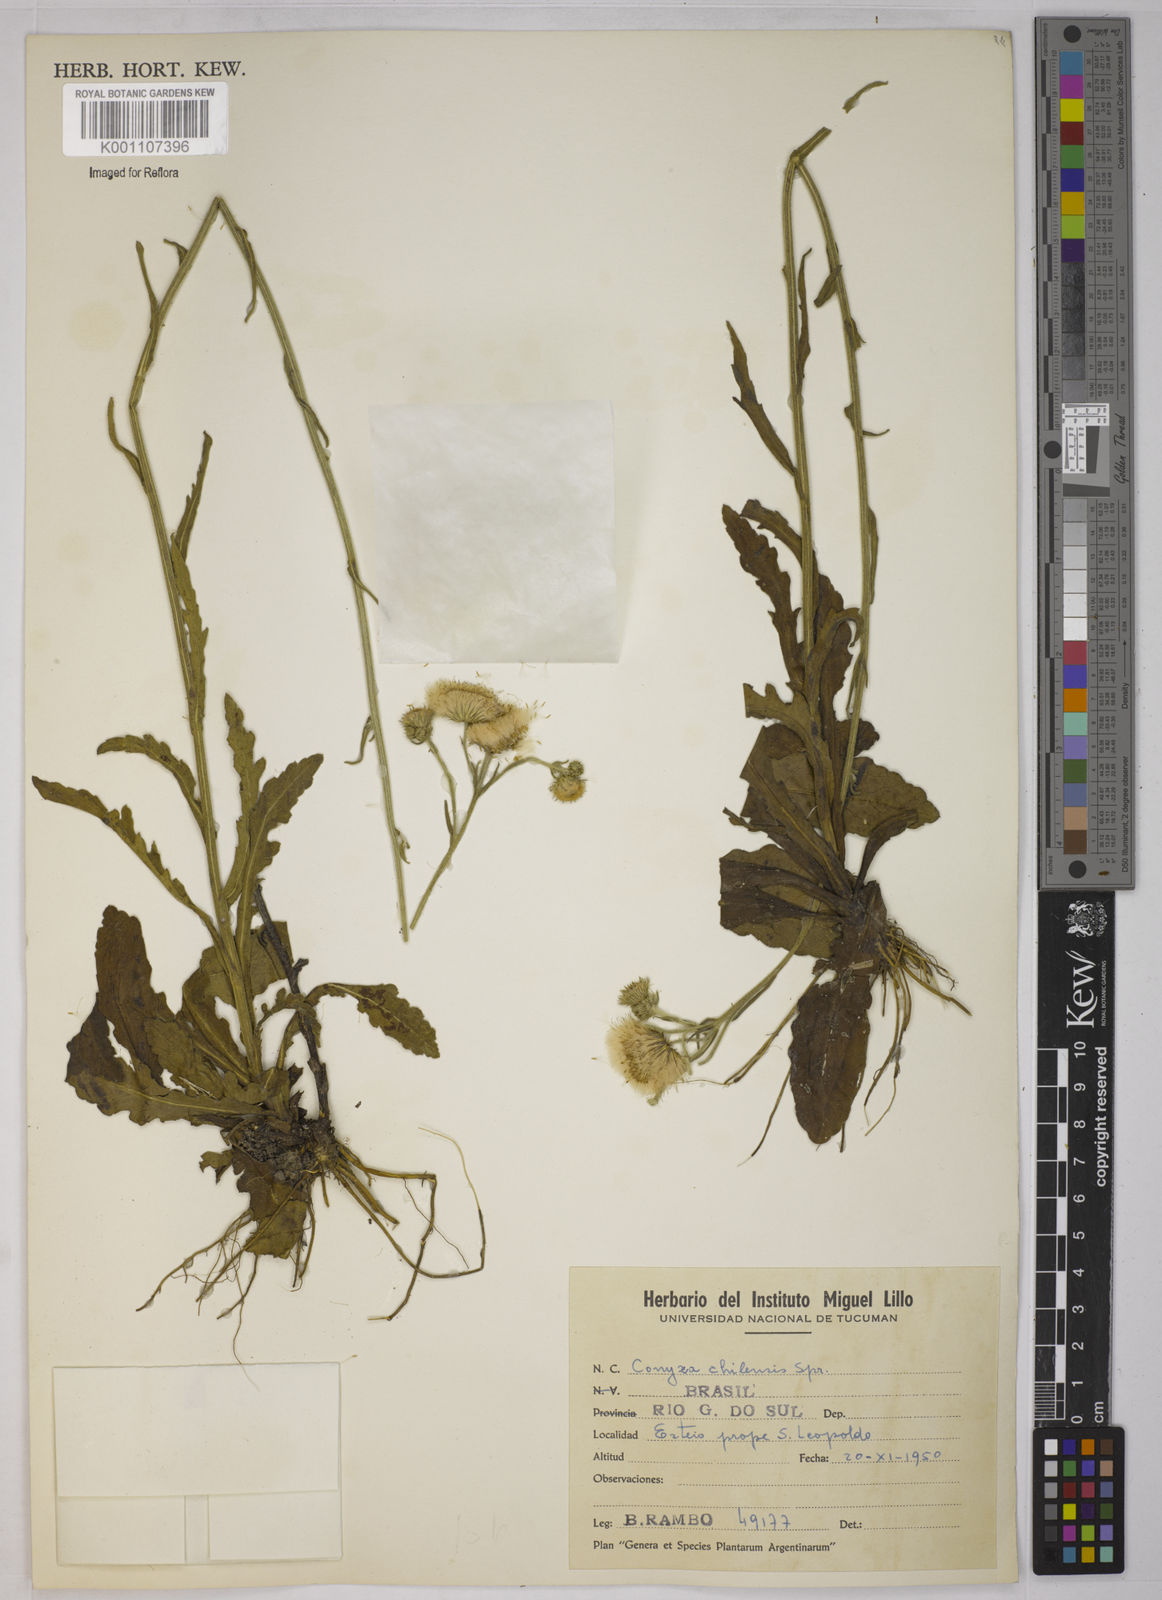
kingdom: Plantae
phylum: Tracheophyta
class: Magnoliopsida
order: Asterales
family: Asteraceae
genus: Conyza
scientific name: Conyza
